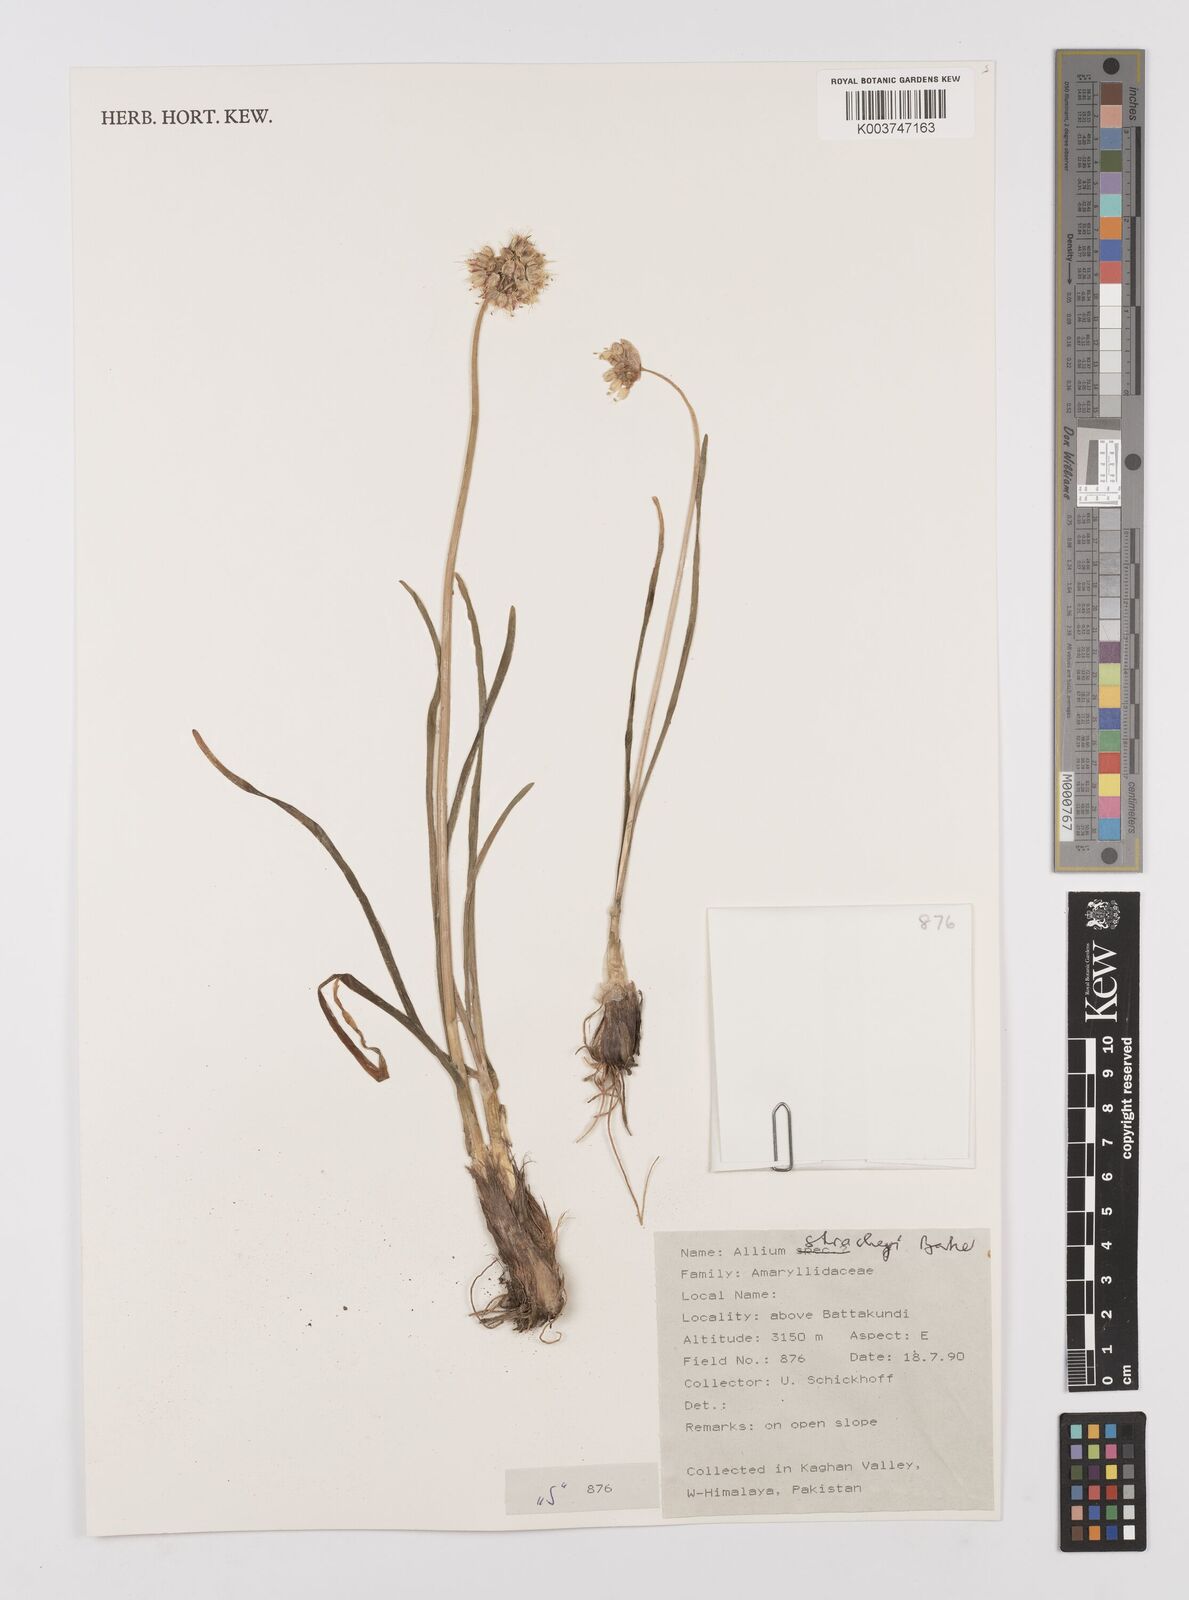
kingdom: Plantae
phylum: Tracheophyta
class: Liliopsida
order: Asparagales
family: Amaryllidaceae
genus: Allium
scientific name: Allium stracheyi
